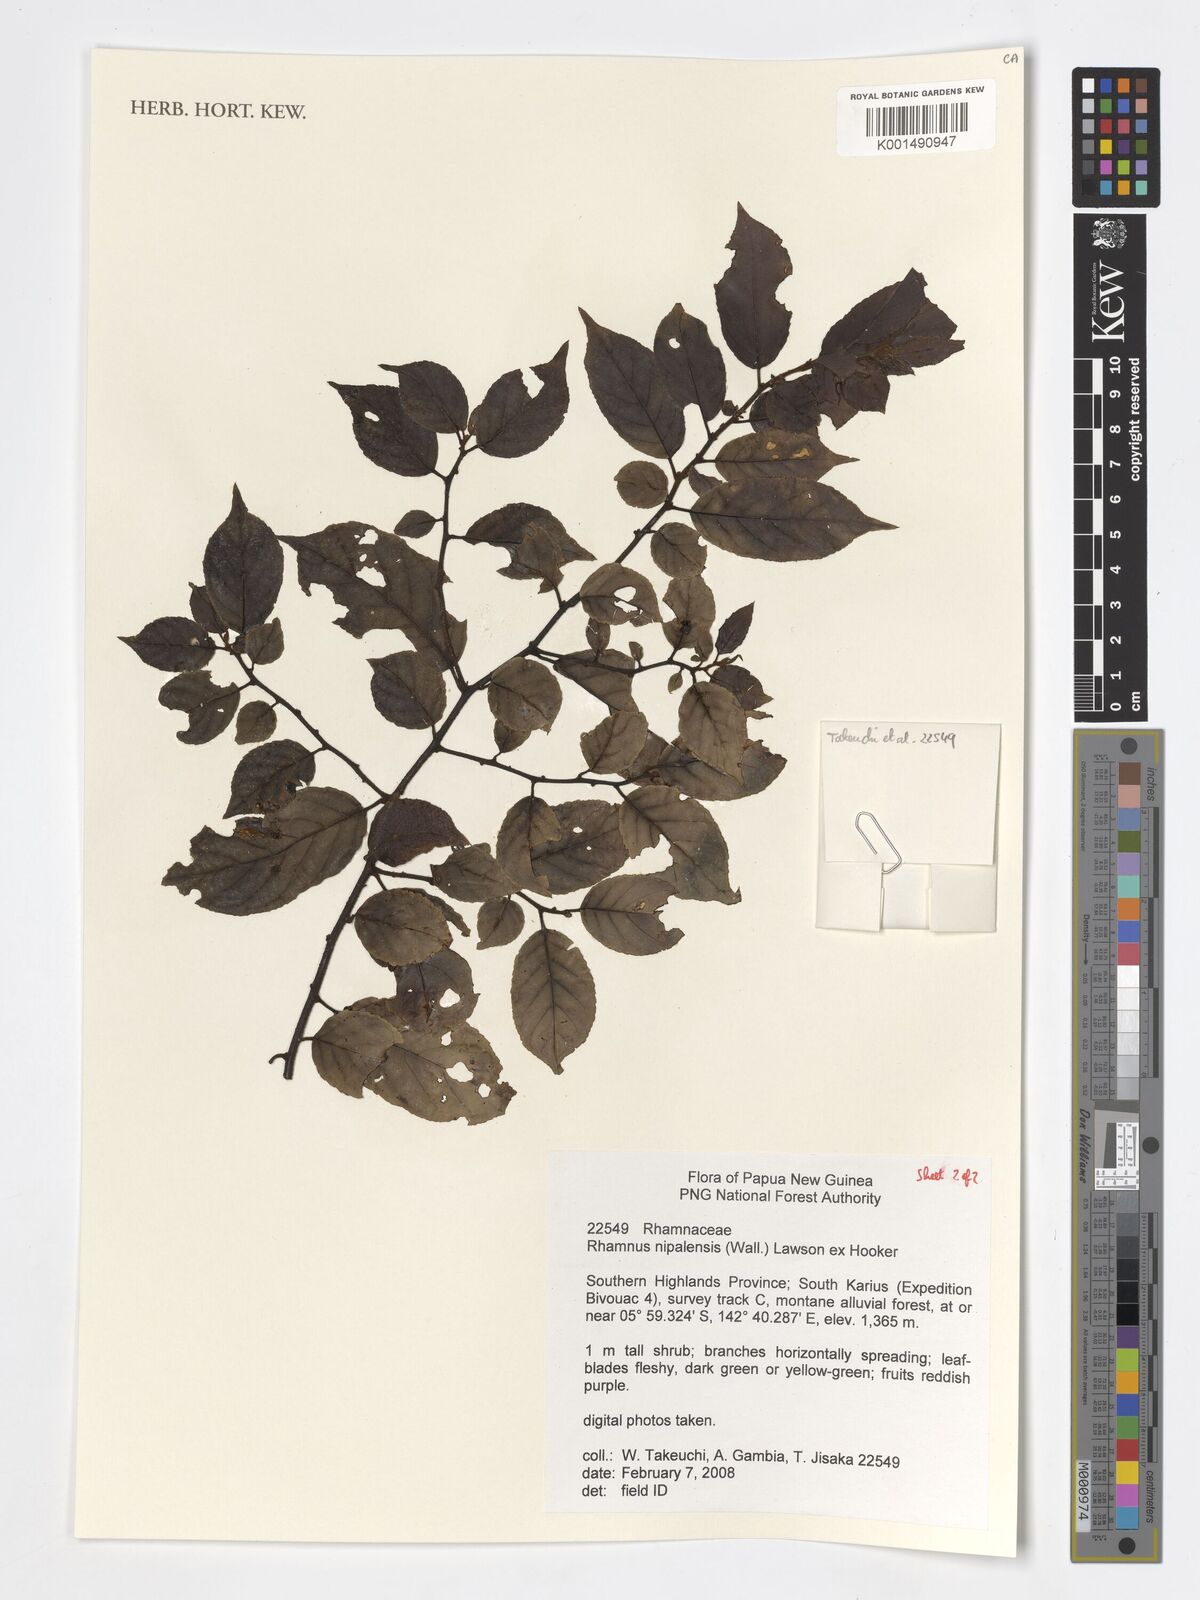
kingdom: Plantae
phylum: Tracheophyta
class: Magnoliopsida
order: Rosales
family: Rhamnaceae
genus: Rhamnus
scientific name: Rhamnus napalensis
